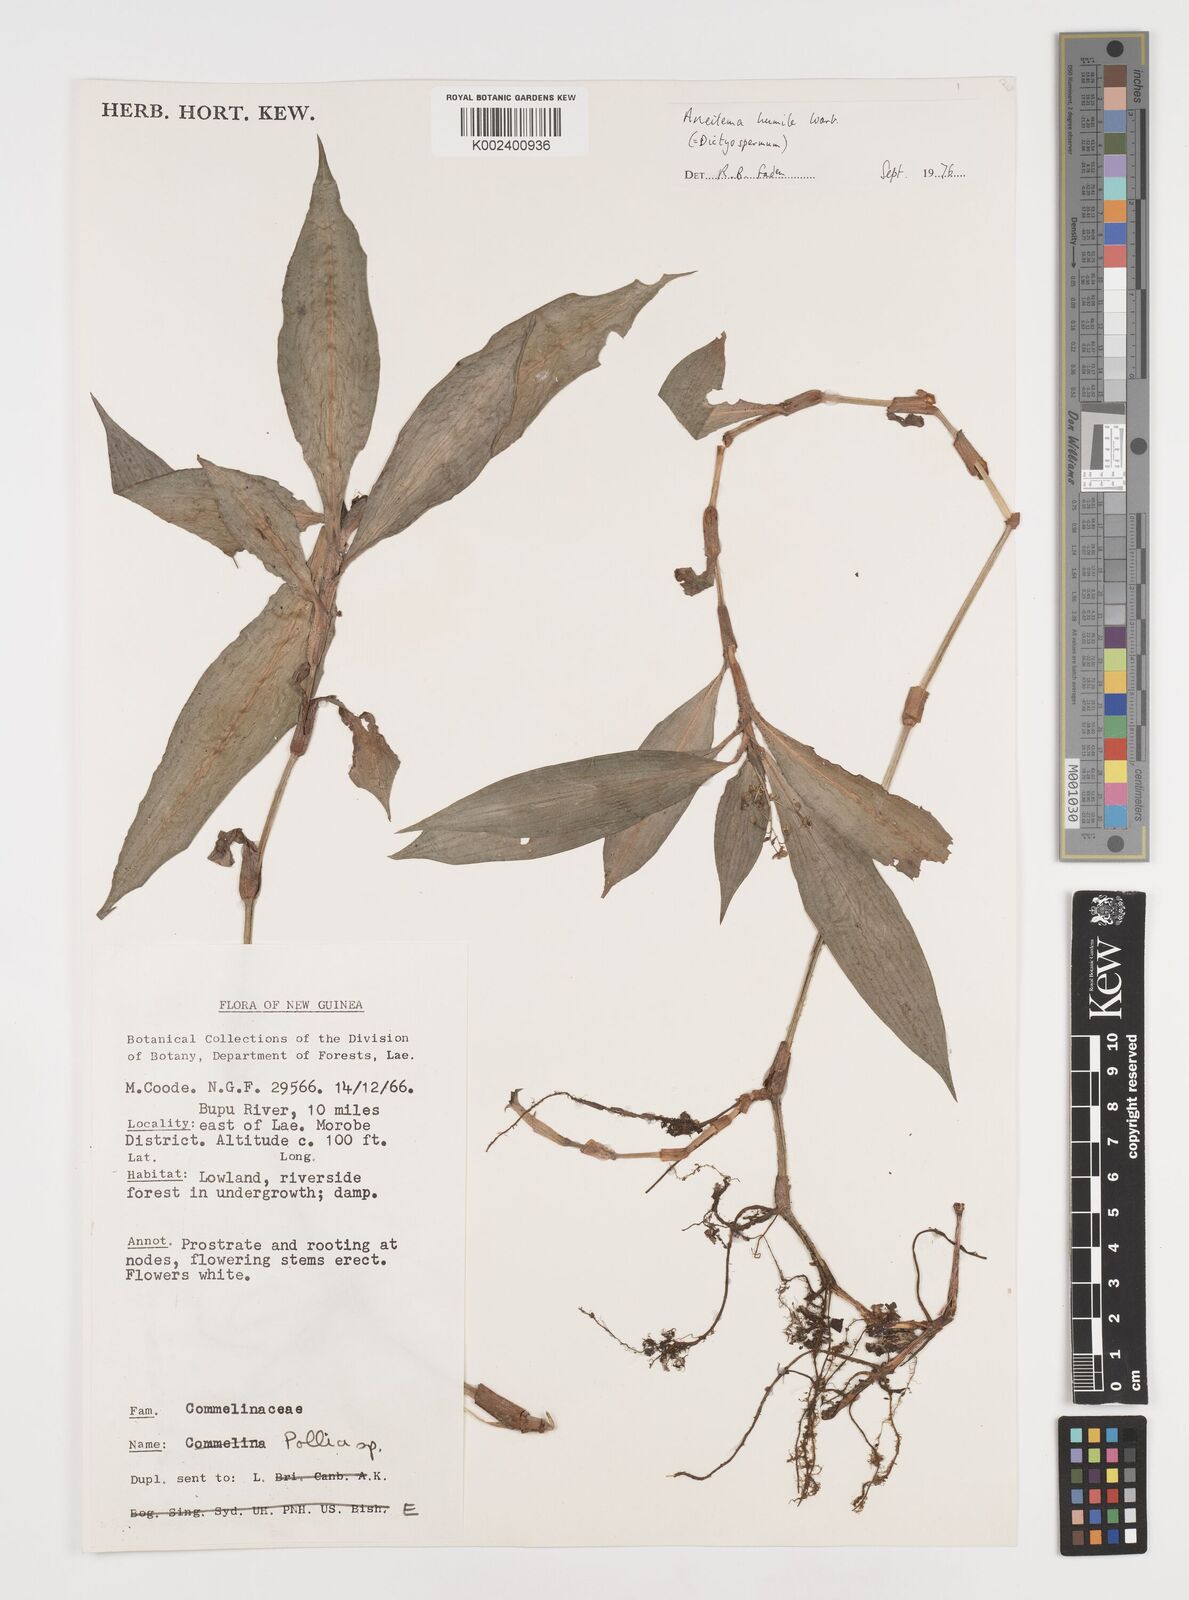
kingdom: Plantae
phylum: Tracheophyta
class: Liliopsida
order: Commelinales
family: Commelinaceae
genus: Dictyospermum
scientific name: Dictyospermum humile
